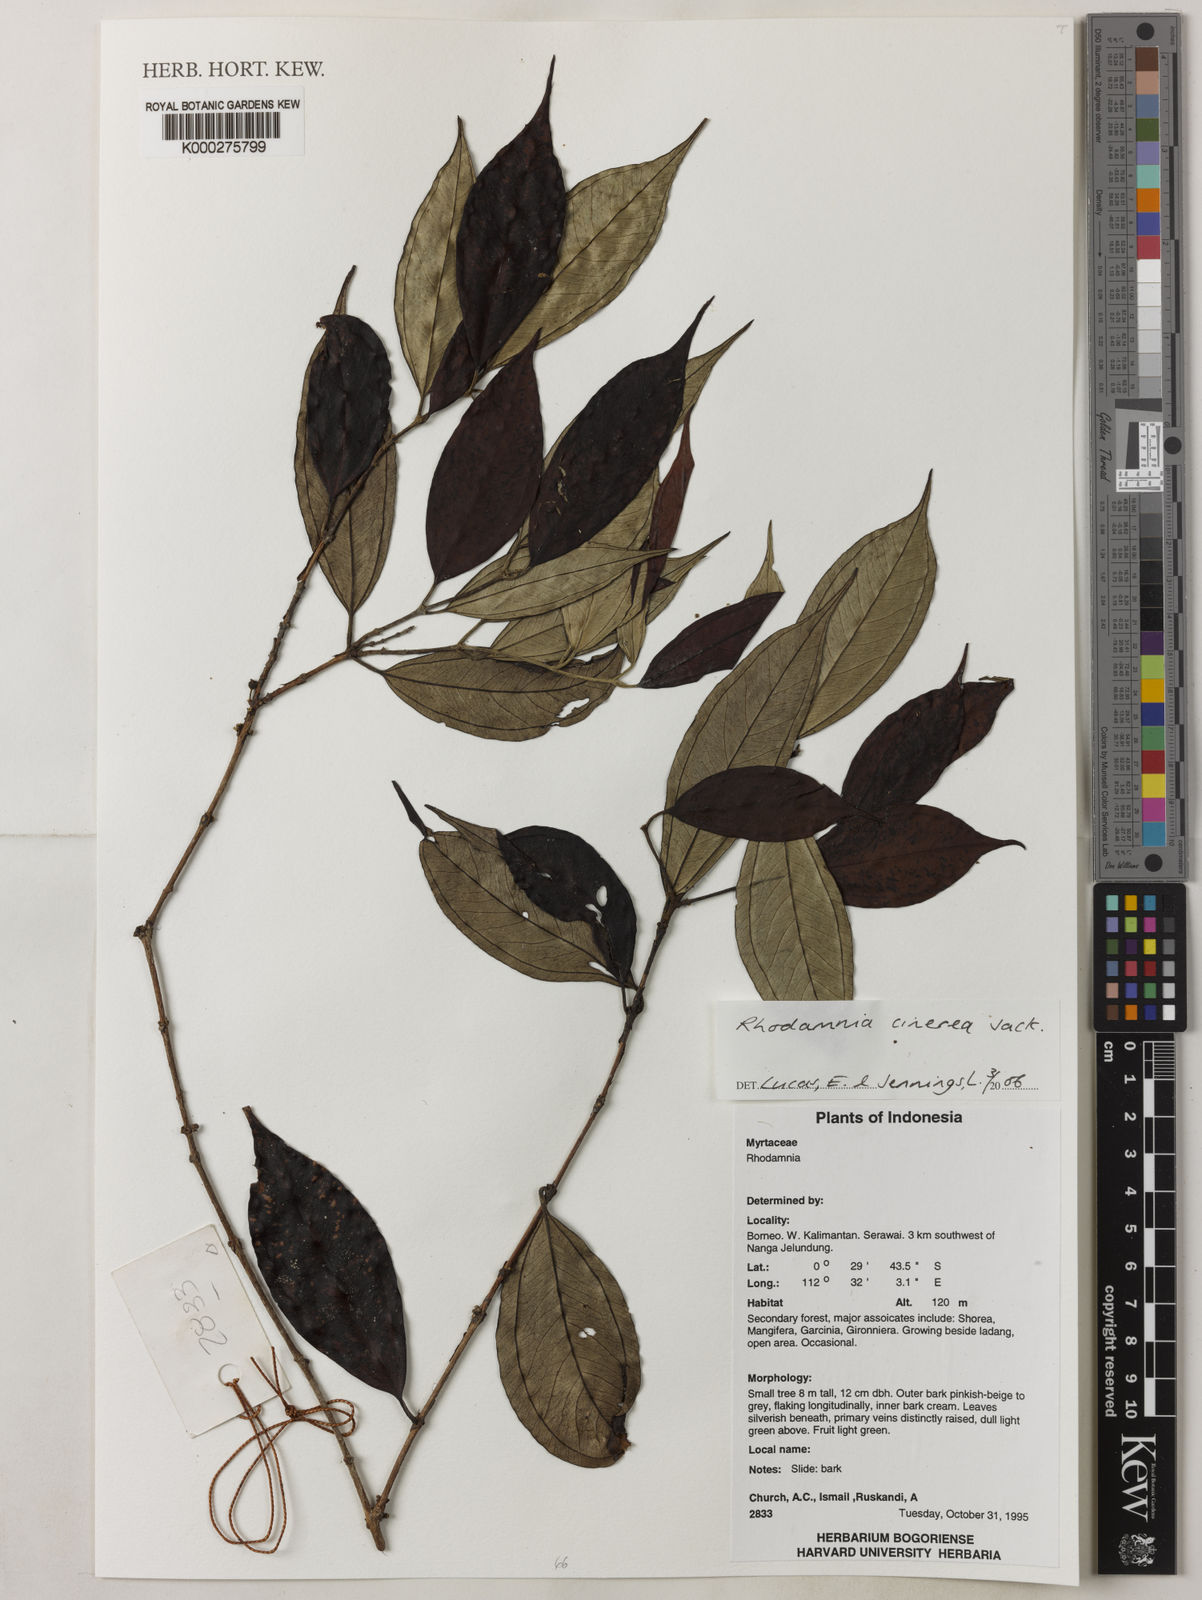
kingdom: Plantae
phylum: Tracheophyta
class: Magnoliopsida
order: Myrtales
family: Myrtaceae
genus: Rhodamnia
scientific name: Rhodamnia cinerea
